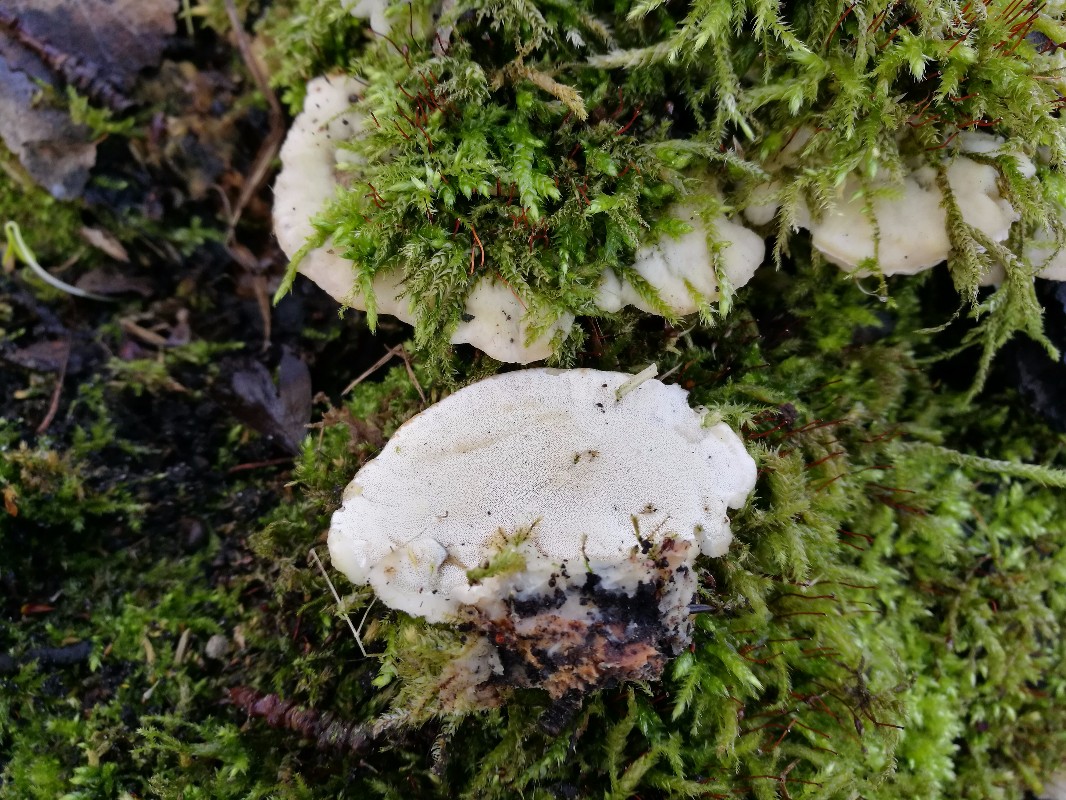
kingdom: Fungi
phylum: Basidiomycota
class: Agaricomycetes
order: Hymenochaetales
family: Oxyporaceae
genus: Oxyporus
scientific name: Oxyporus populinus
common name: sammenvokset trylleporesvamp
